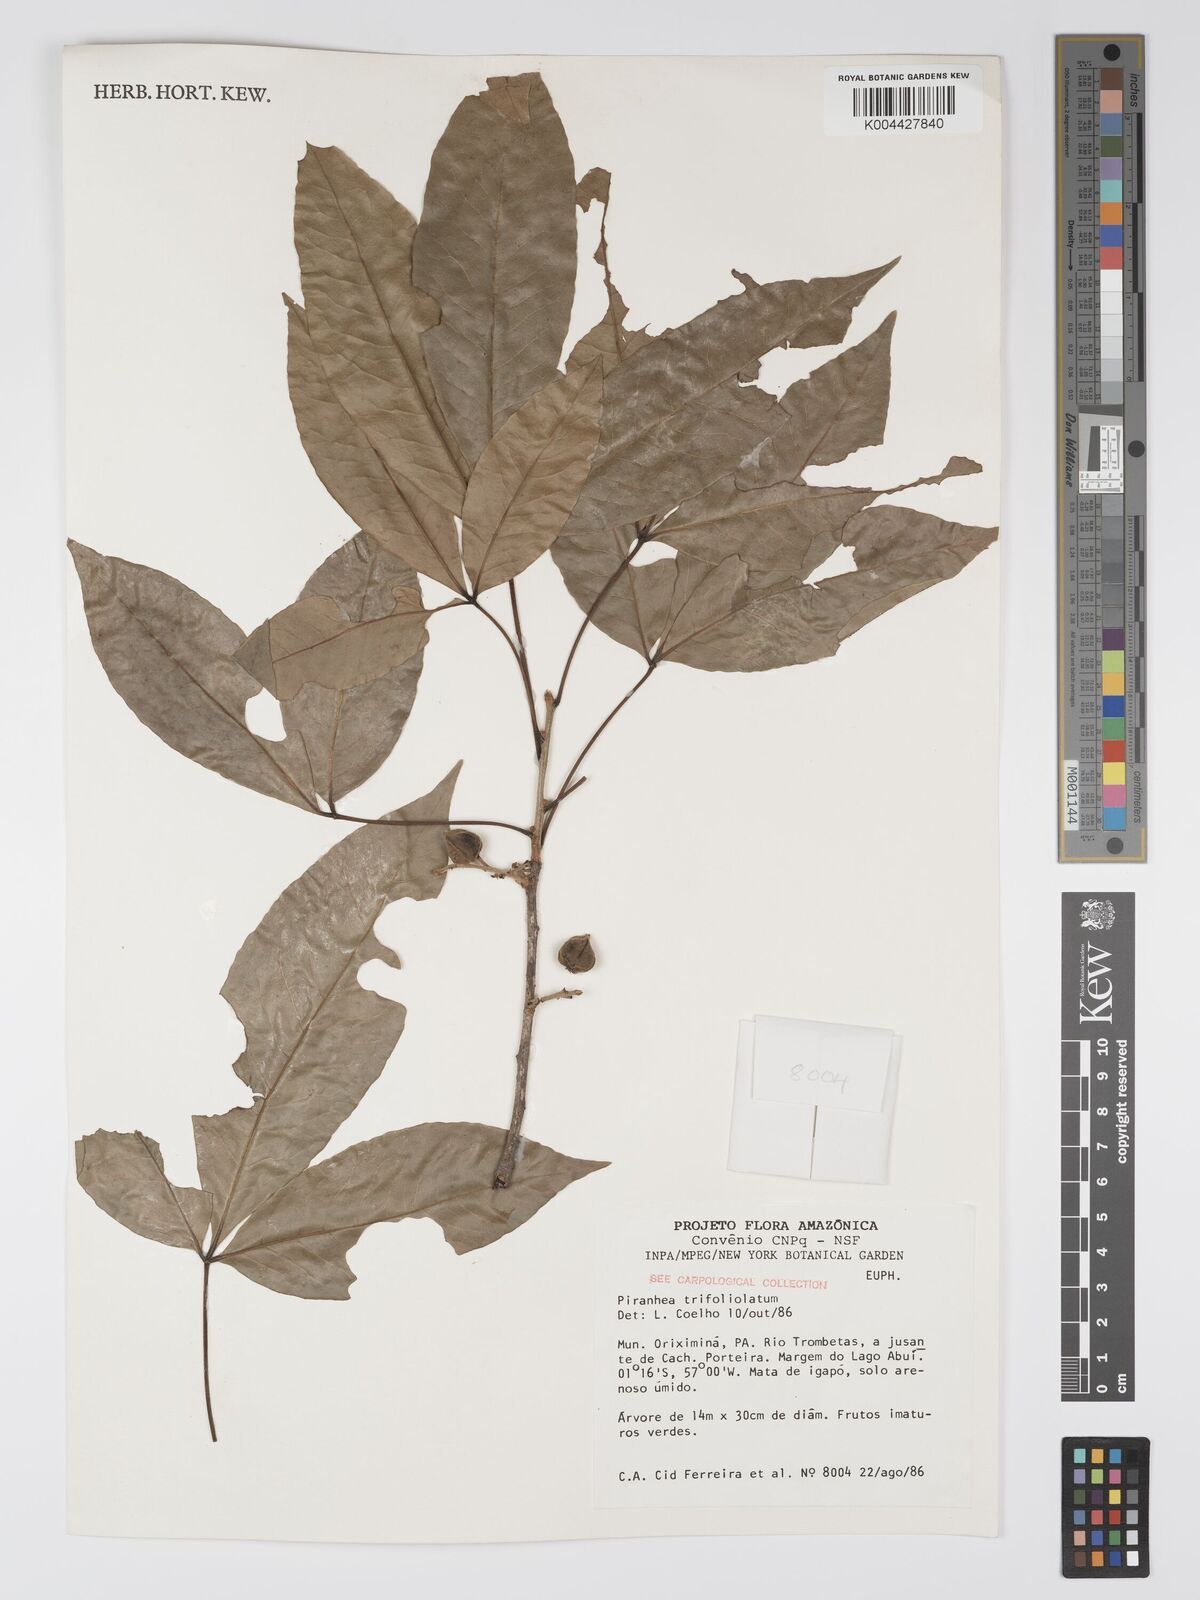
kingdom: Plantae
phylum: Tracheophyta
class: Magnoliopsida
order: Malpighiales
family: Picrodendraceae
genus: Piranhea
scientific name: Piranhea trifoliolata
